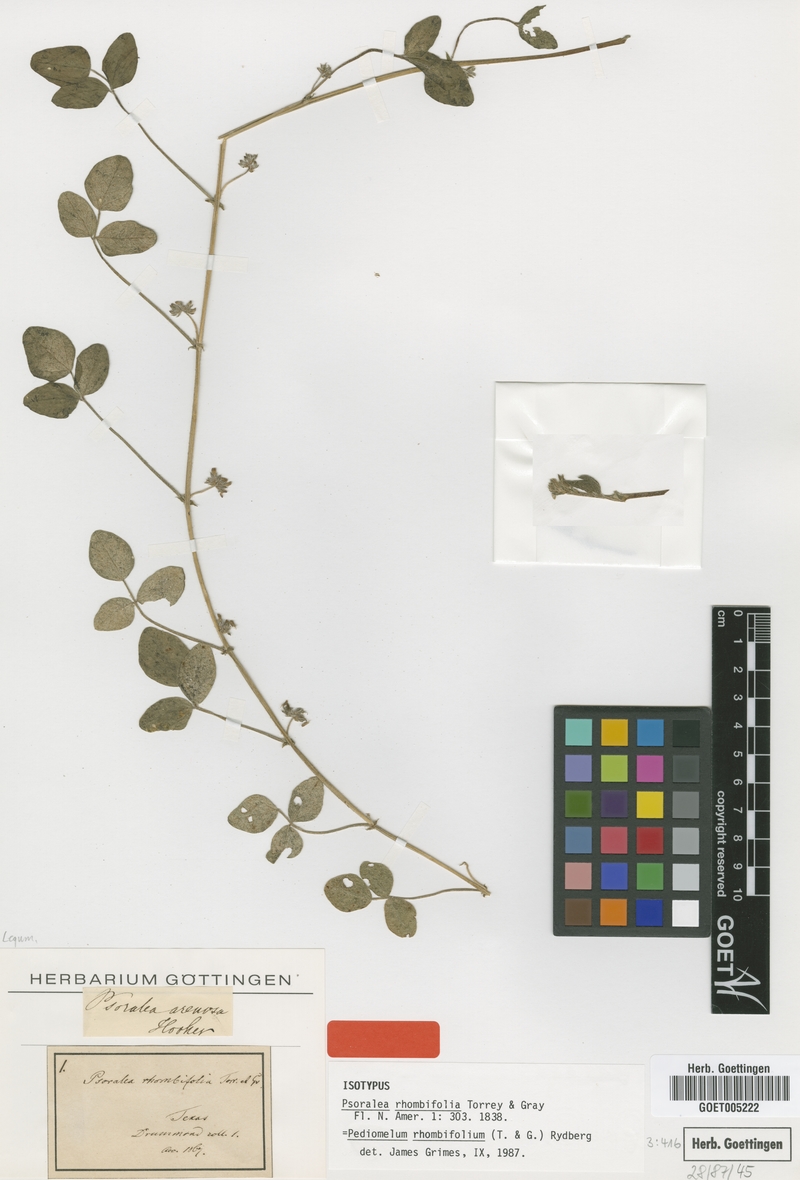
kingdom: Plantae
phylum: Tracheophyta
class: Magnoliopsida
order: Fabales
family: Fabaceae
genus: Pediomelum
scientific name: Pediomelum rhombifolium
